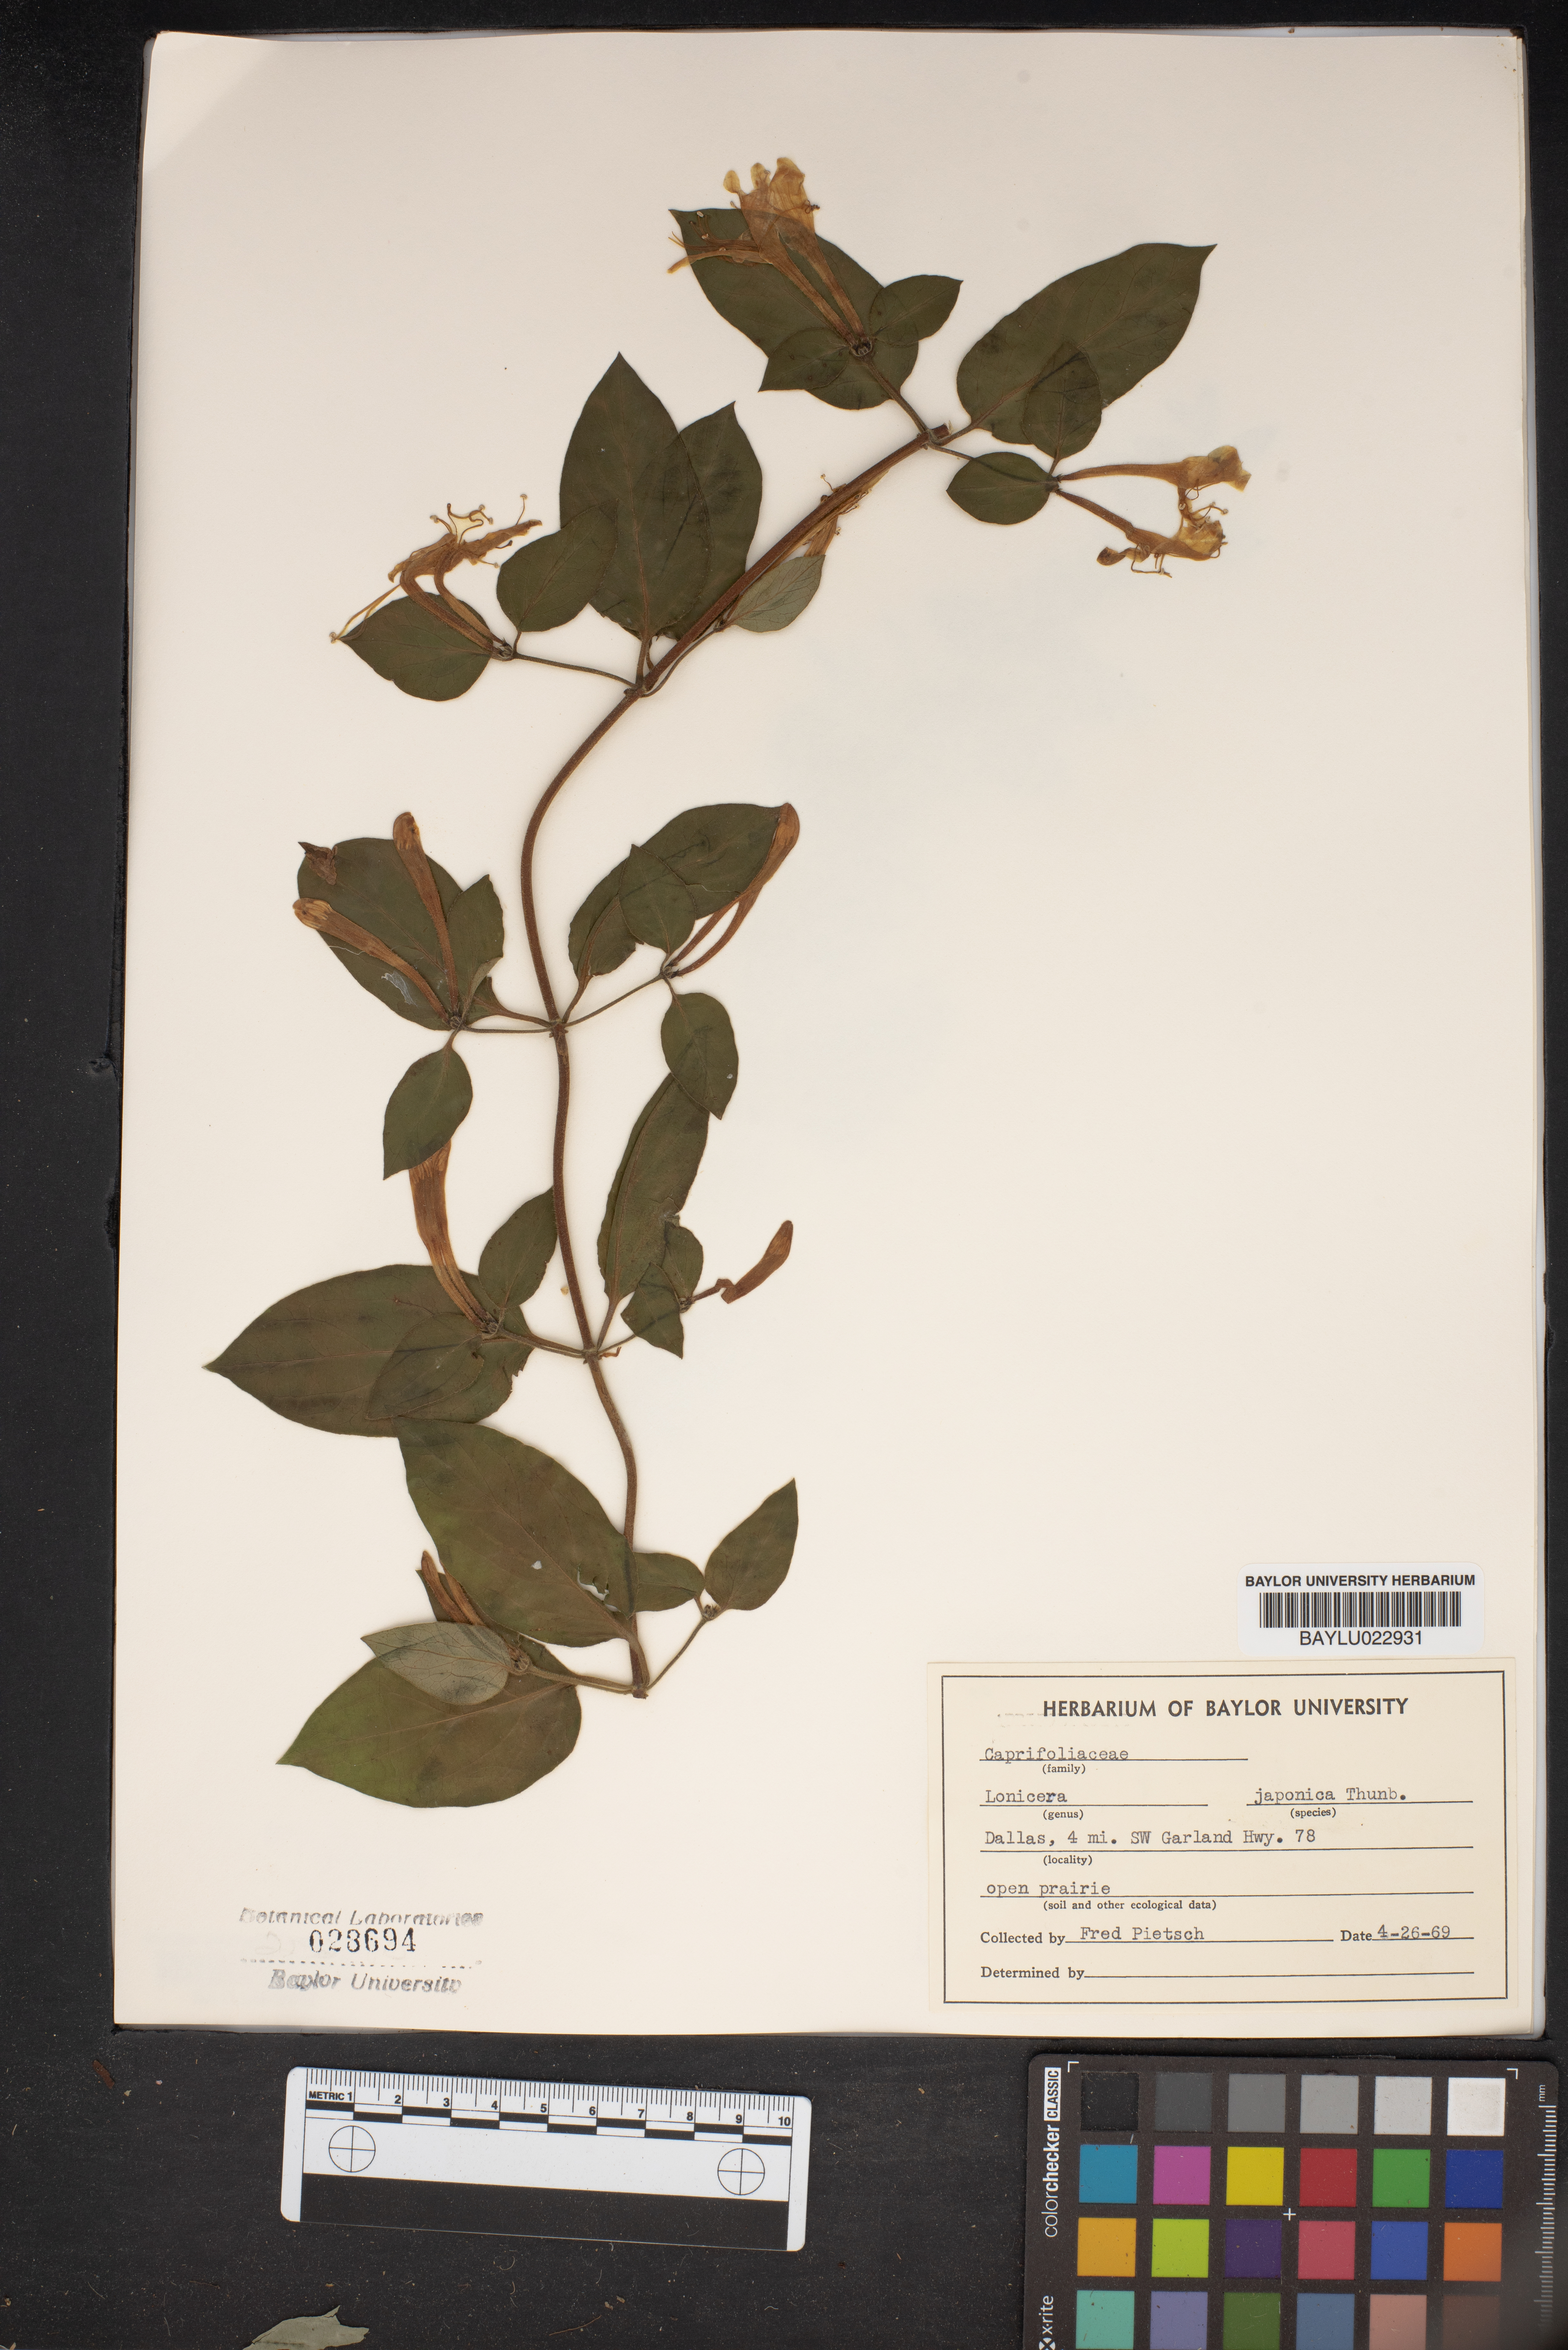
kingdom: Plantae
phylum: Tracheophyta
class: Magnoliopsida
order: Dipsacales
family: Caprifoliaceae
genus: Lonicera
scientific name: Lonicera japonica
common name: Japanese honeysuckle
